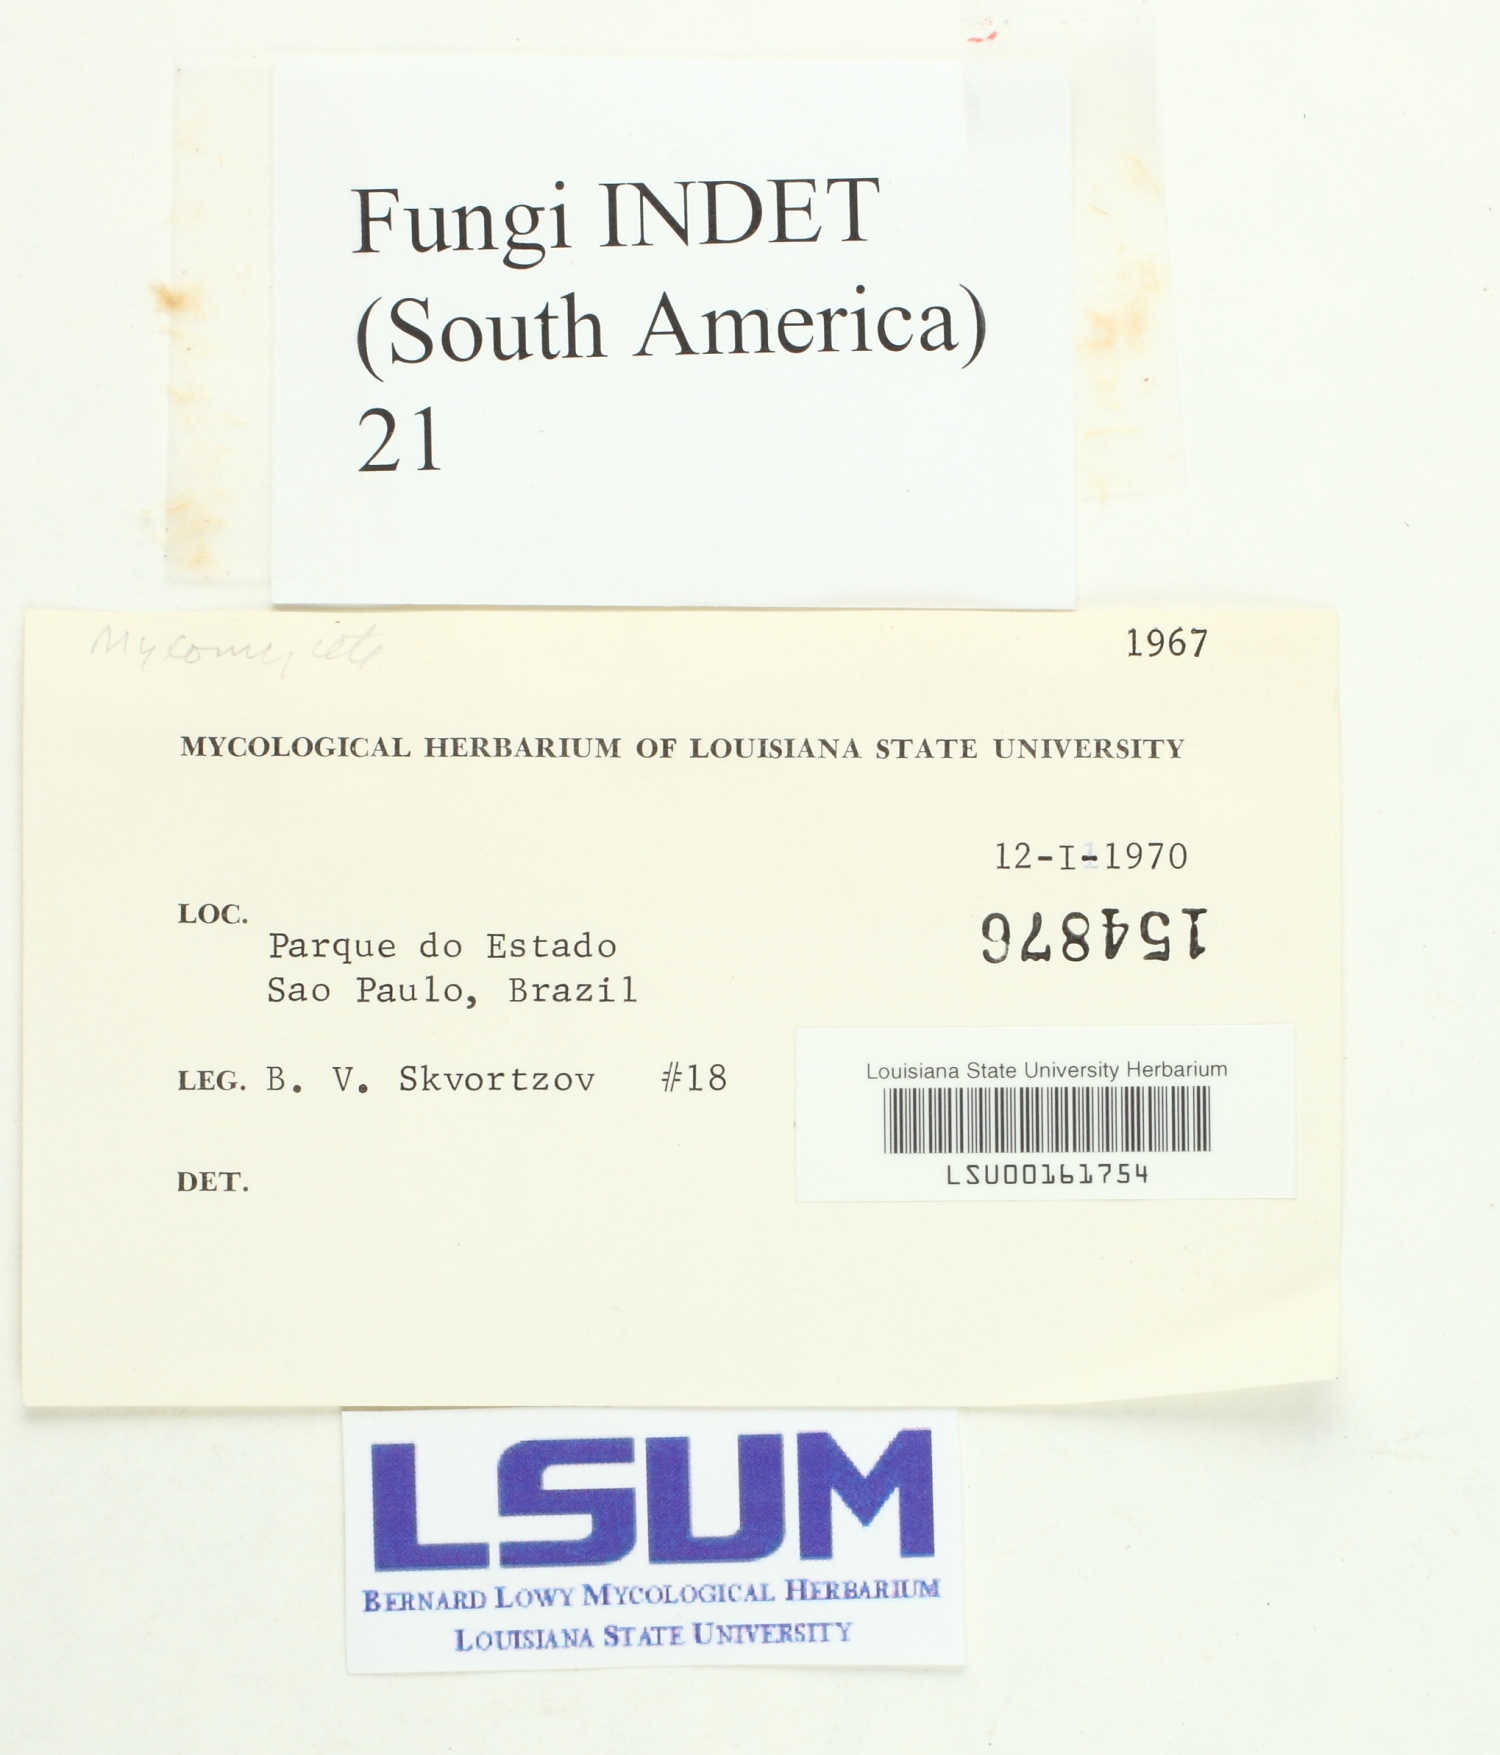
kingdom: Fungi
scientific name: Fungi
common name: Fungi
